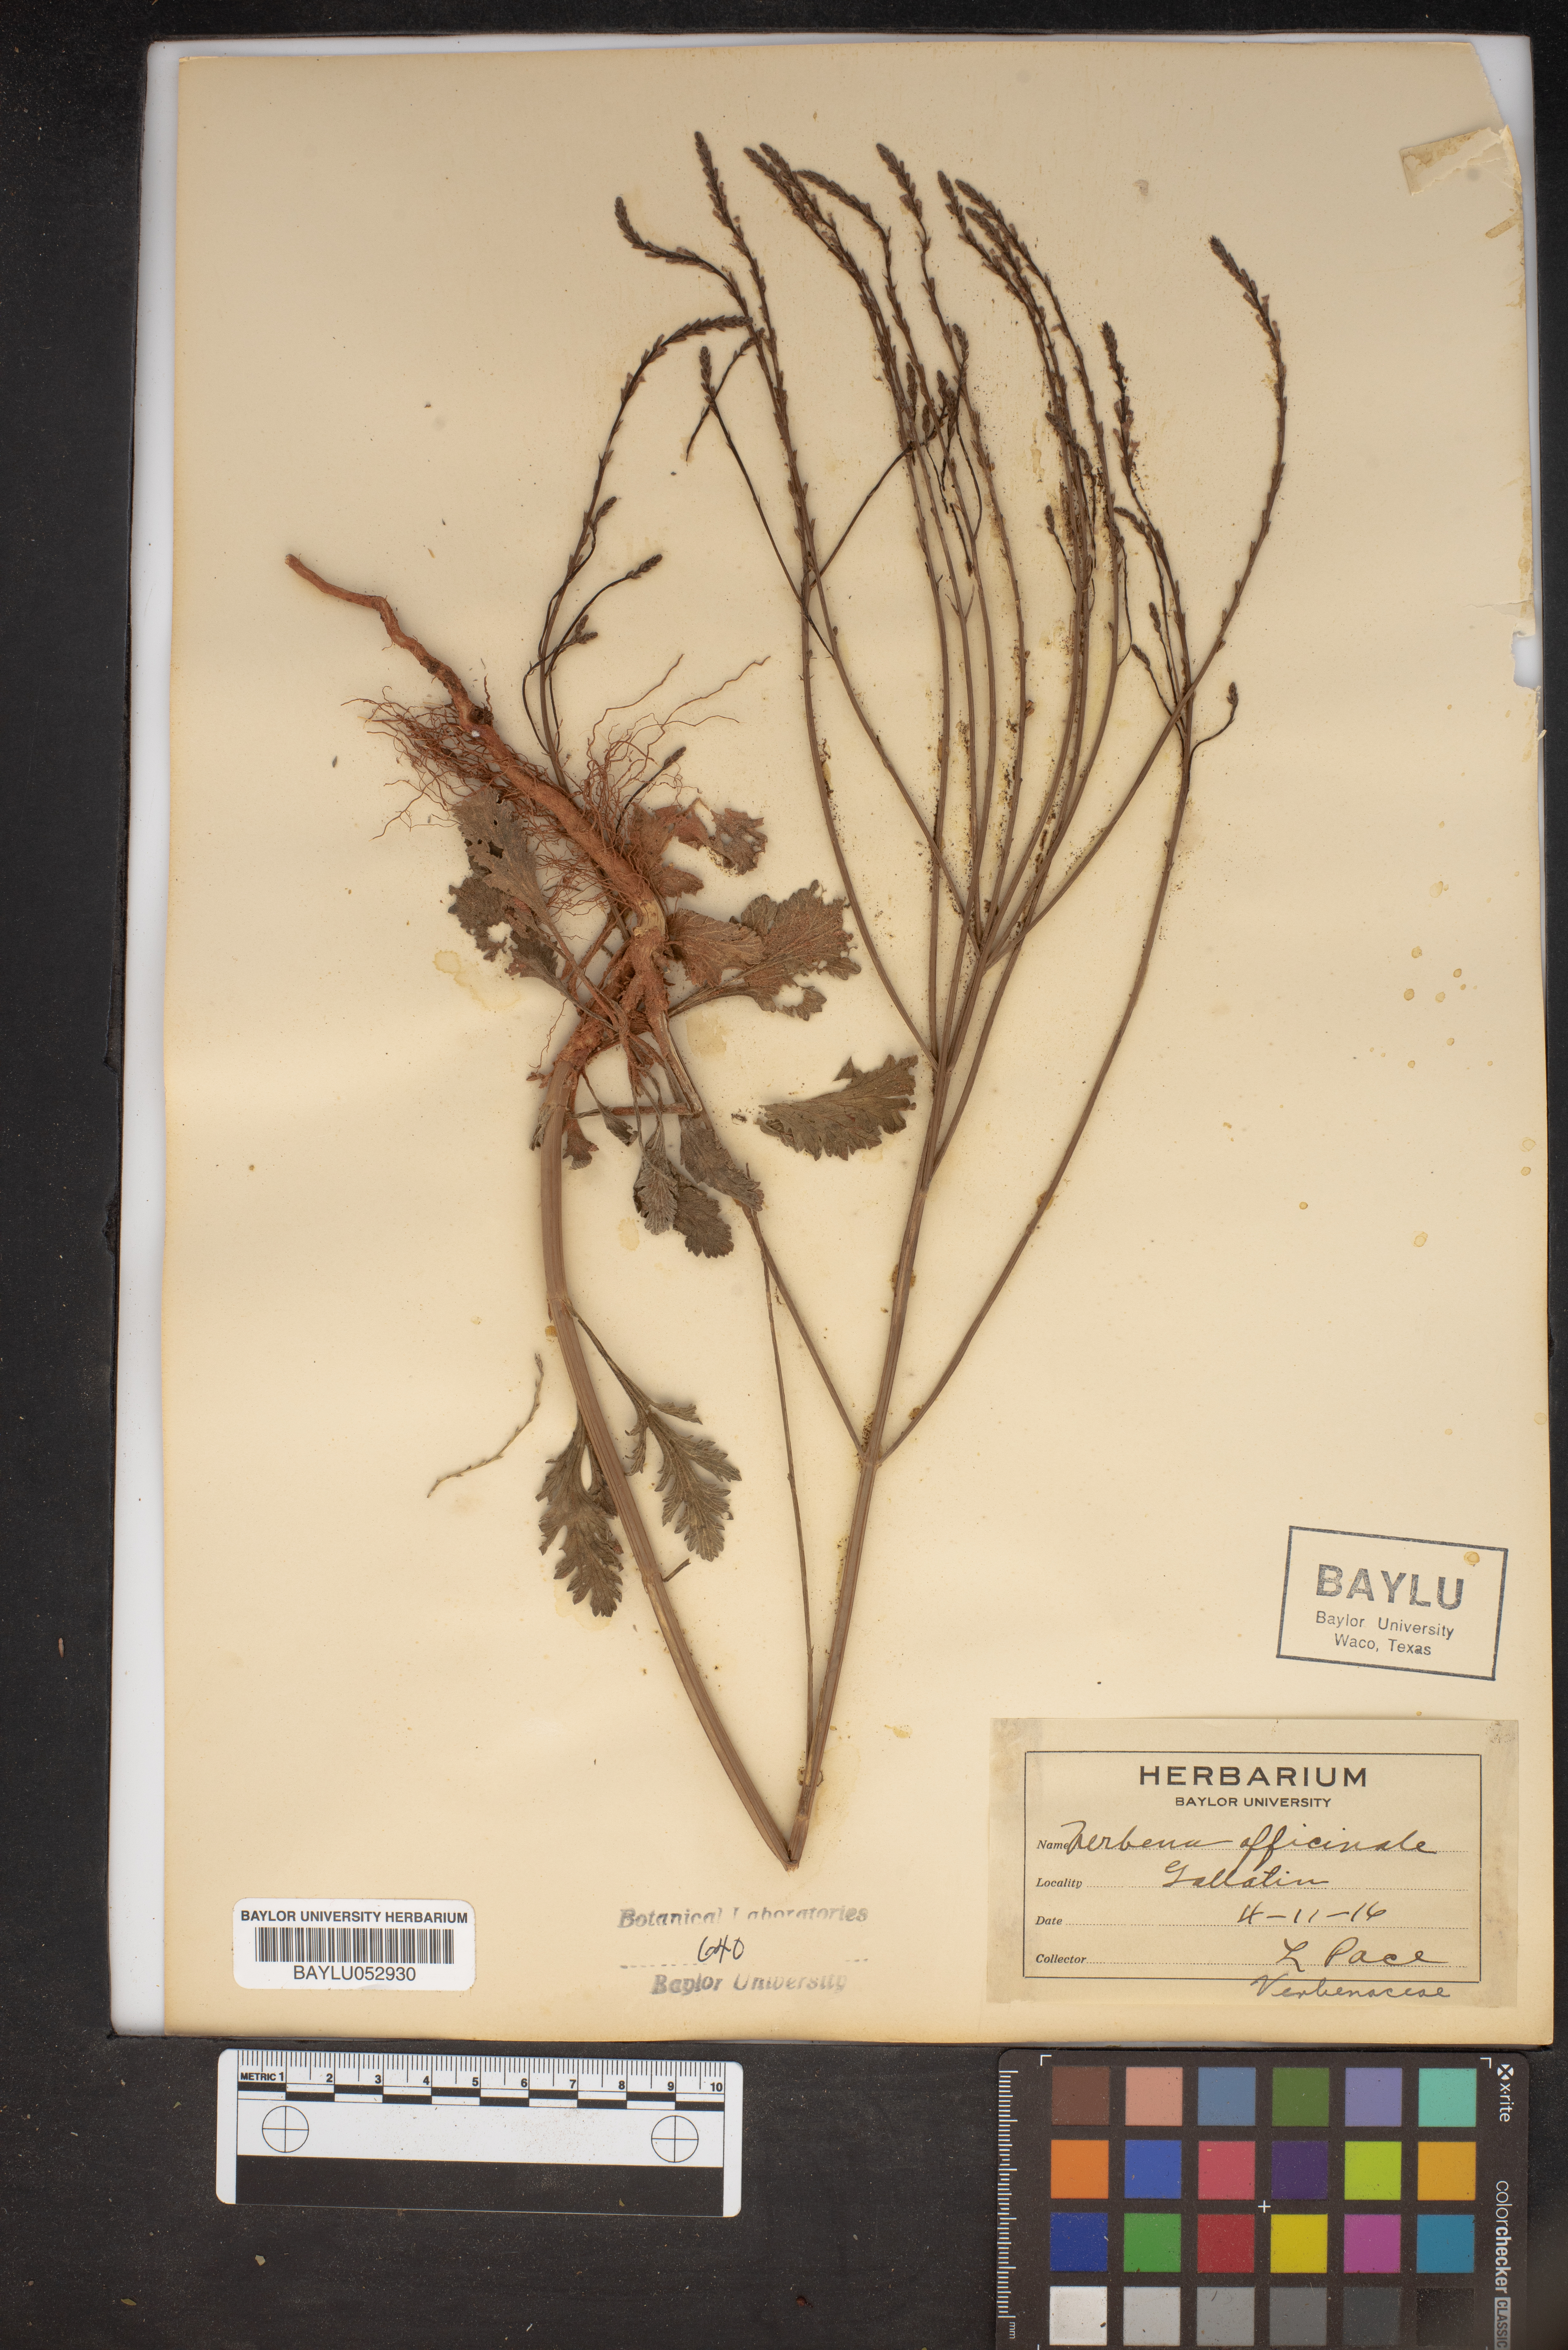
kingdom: Plantae
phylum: Tracheophyta
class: Magnoliopsida
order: Lamiales
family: Verbenaceae
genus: Verbena
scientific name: Verbena officinalis
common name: Vervain
